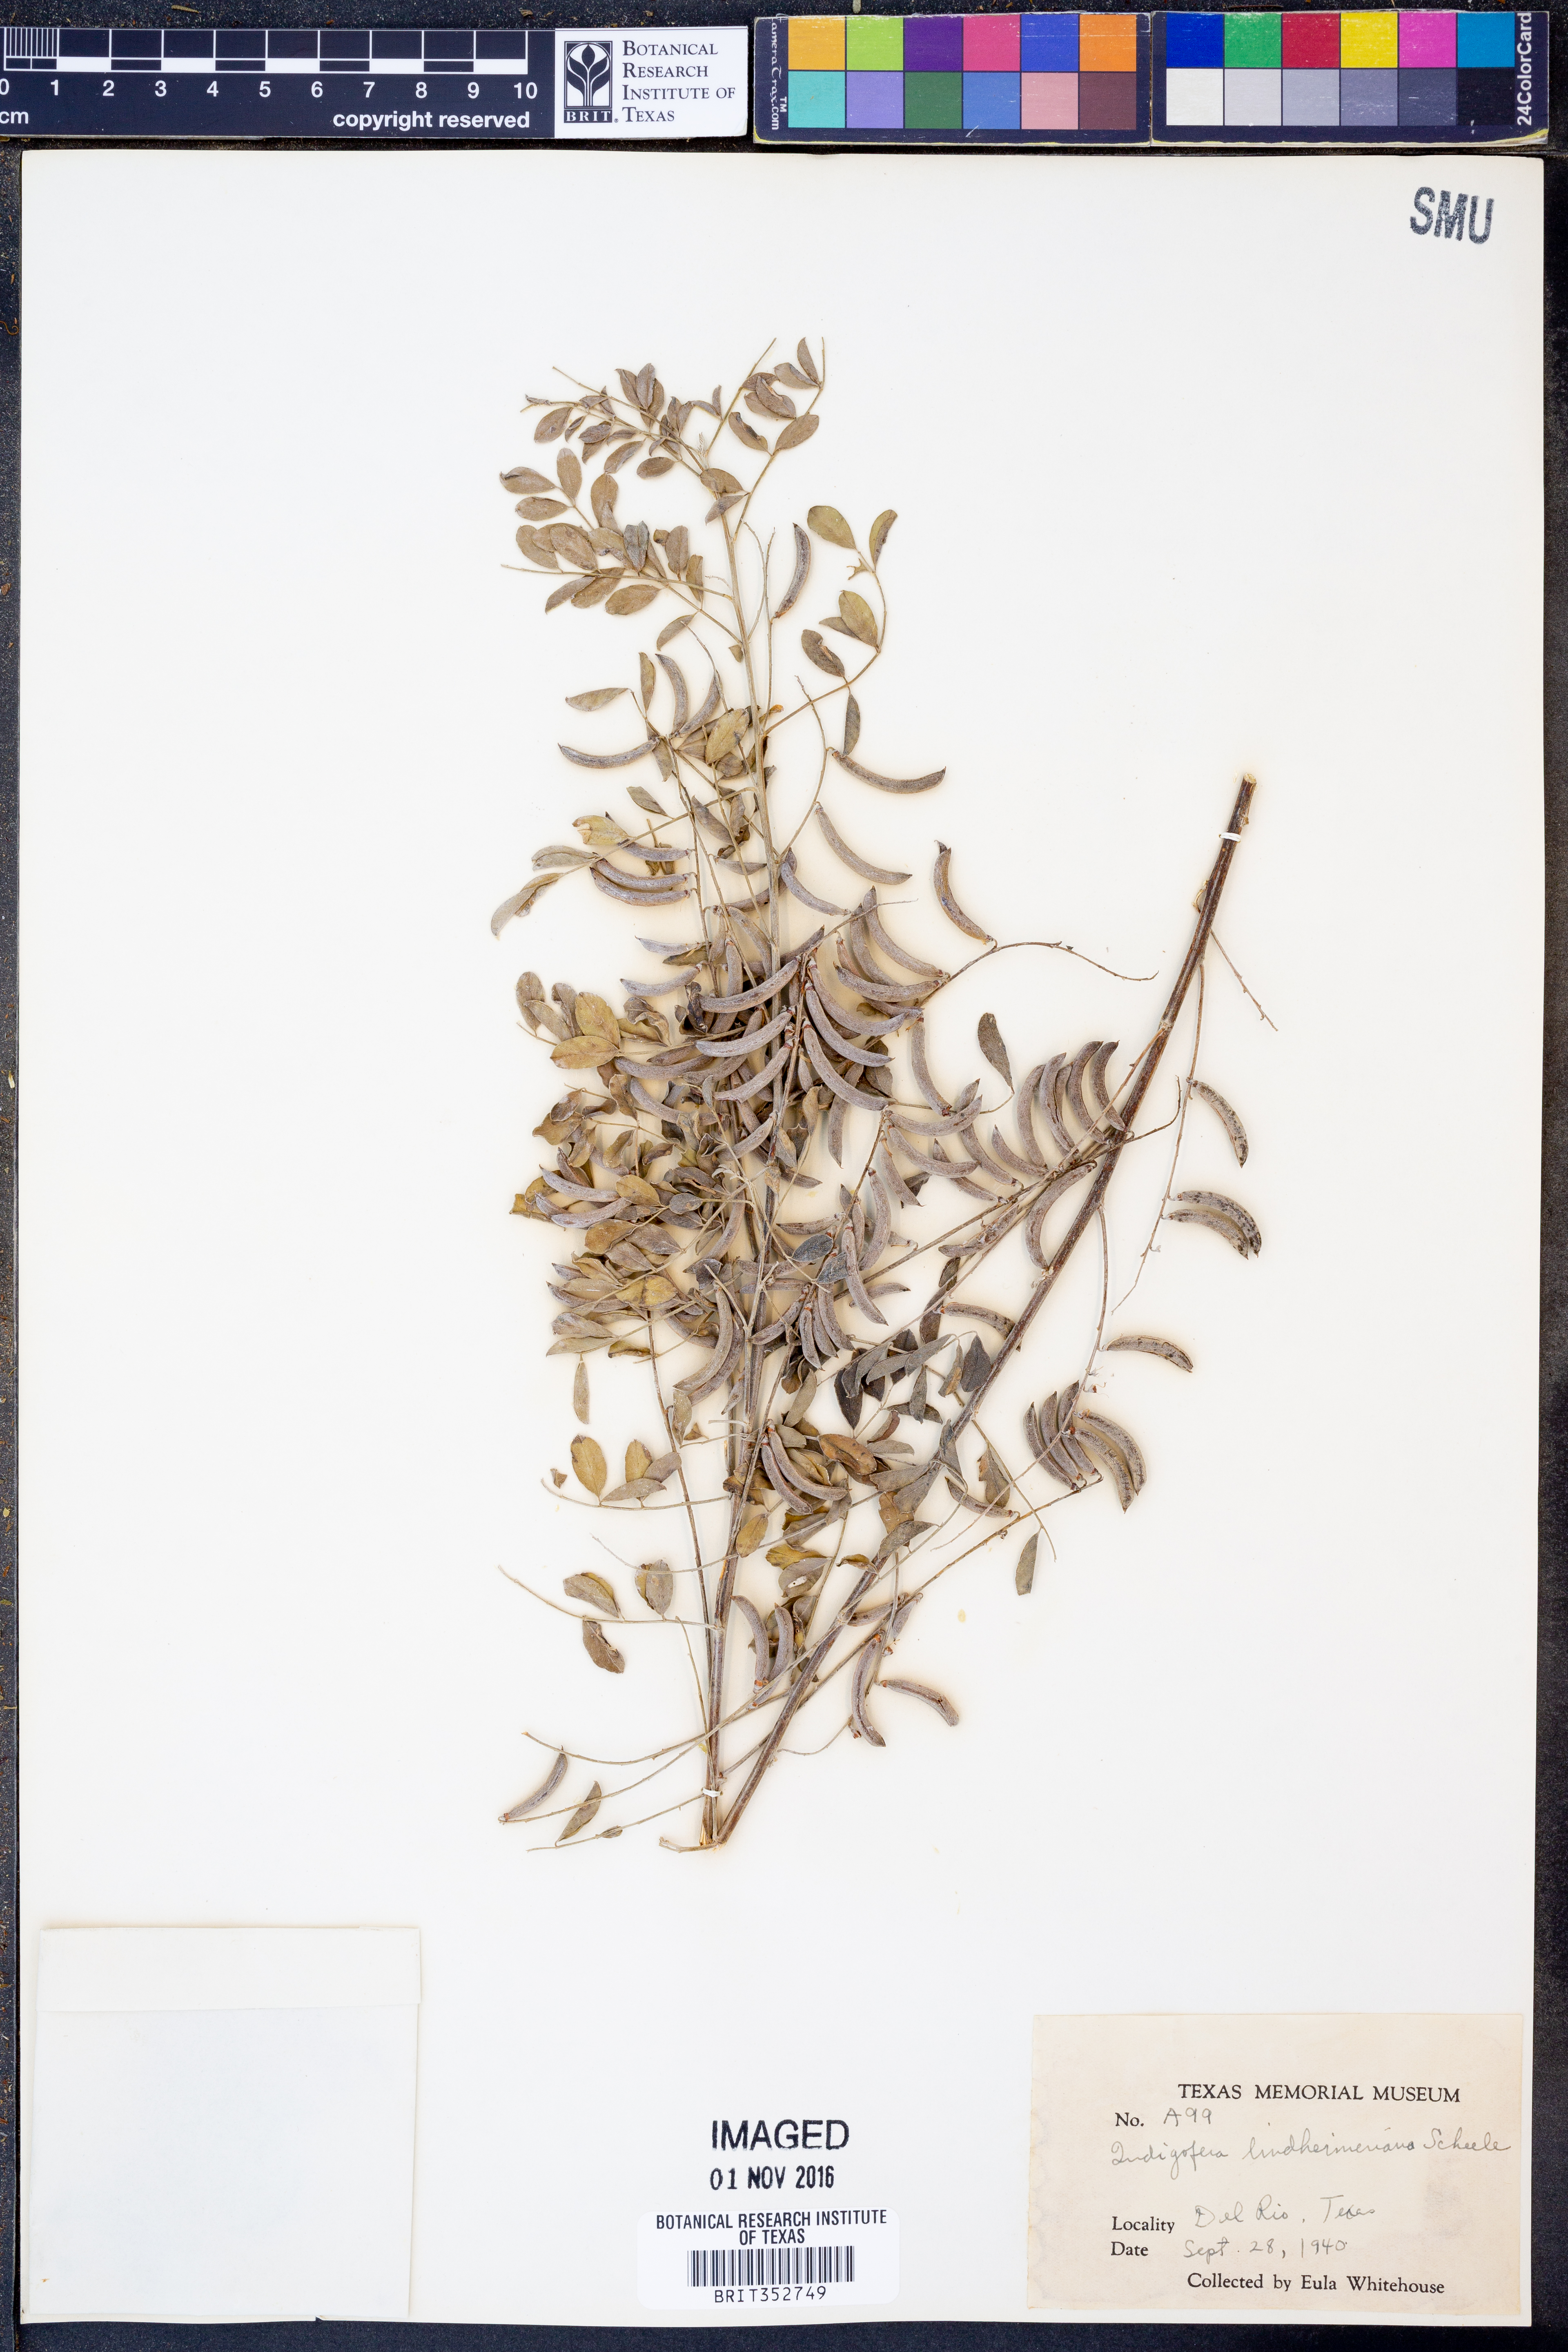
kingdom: Plantae
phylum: Tracheophyta
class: Magnoliopsida
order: Fabales
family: Fabaceae
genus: Indigofera
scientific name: Indigofera lindheimeriana
